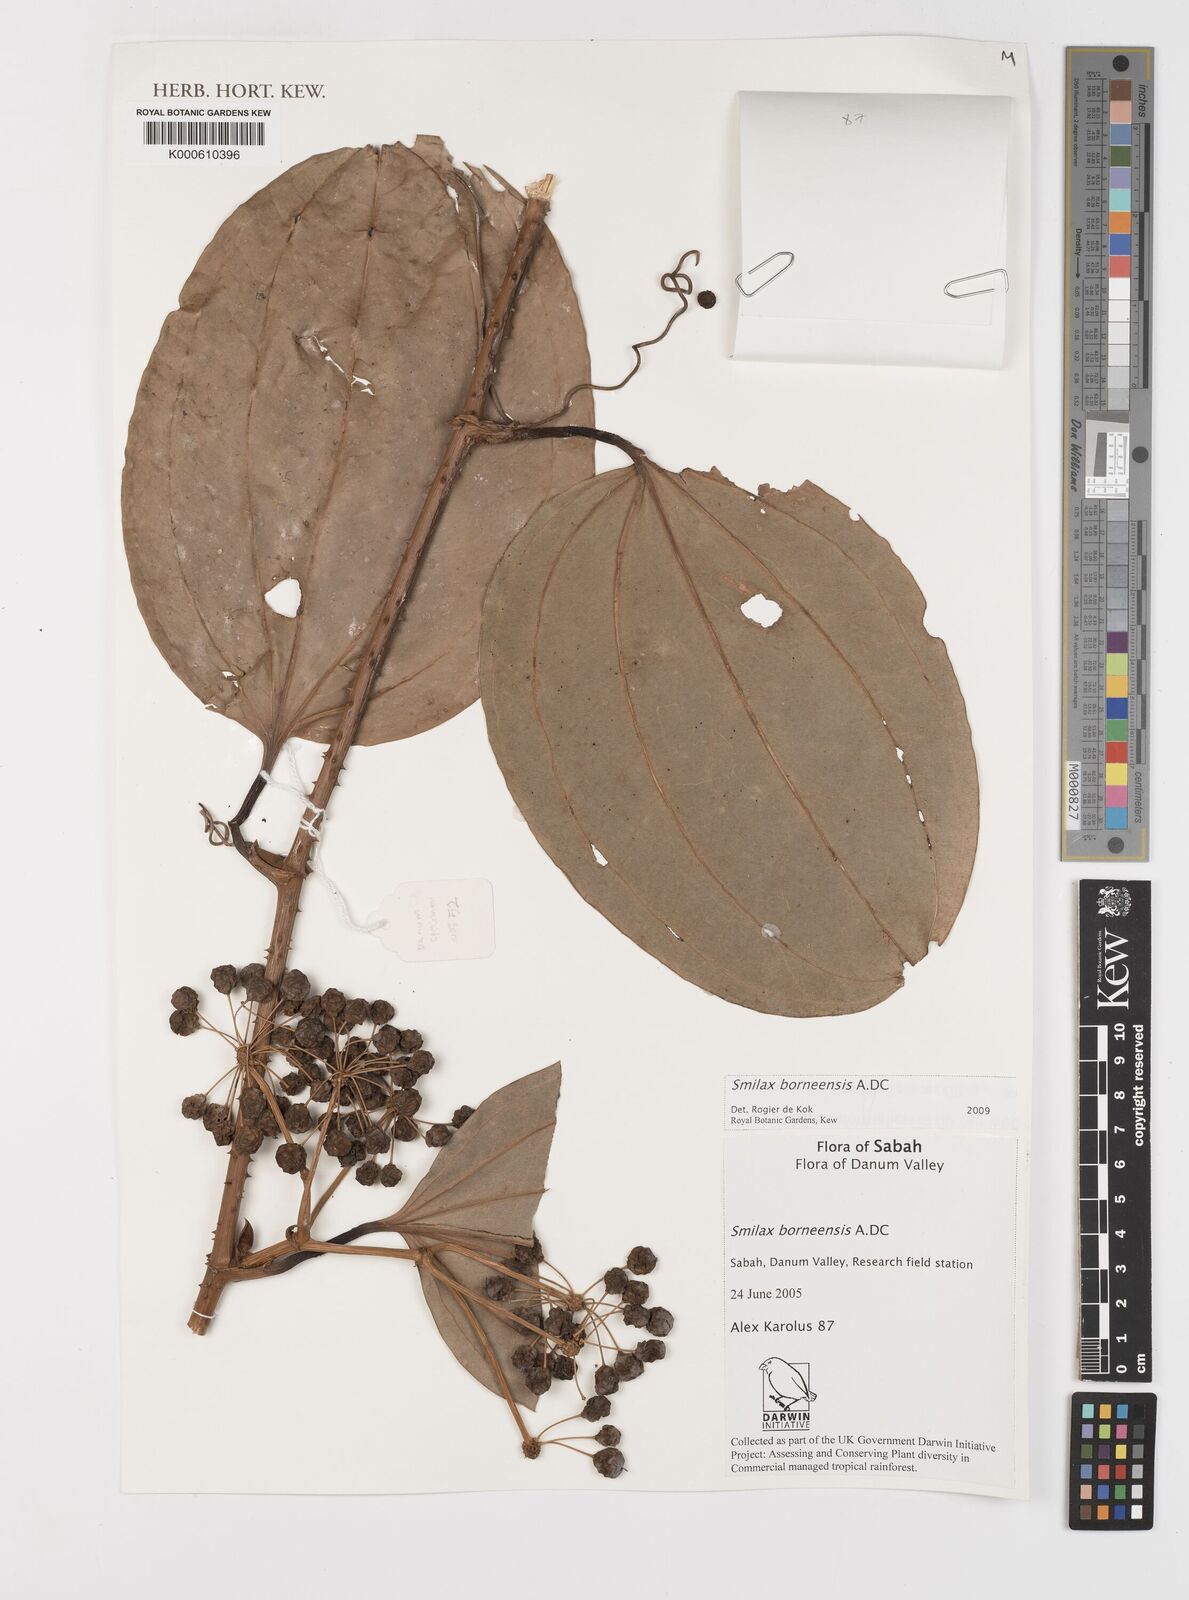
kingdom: Plantae
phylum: Tracheophyta
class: Liliopsida
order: Liliales
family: Smilacaceae
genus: Smilax
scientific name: Smilax borneensis
